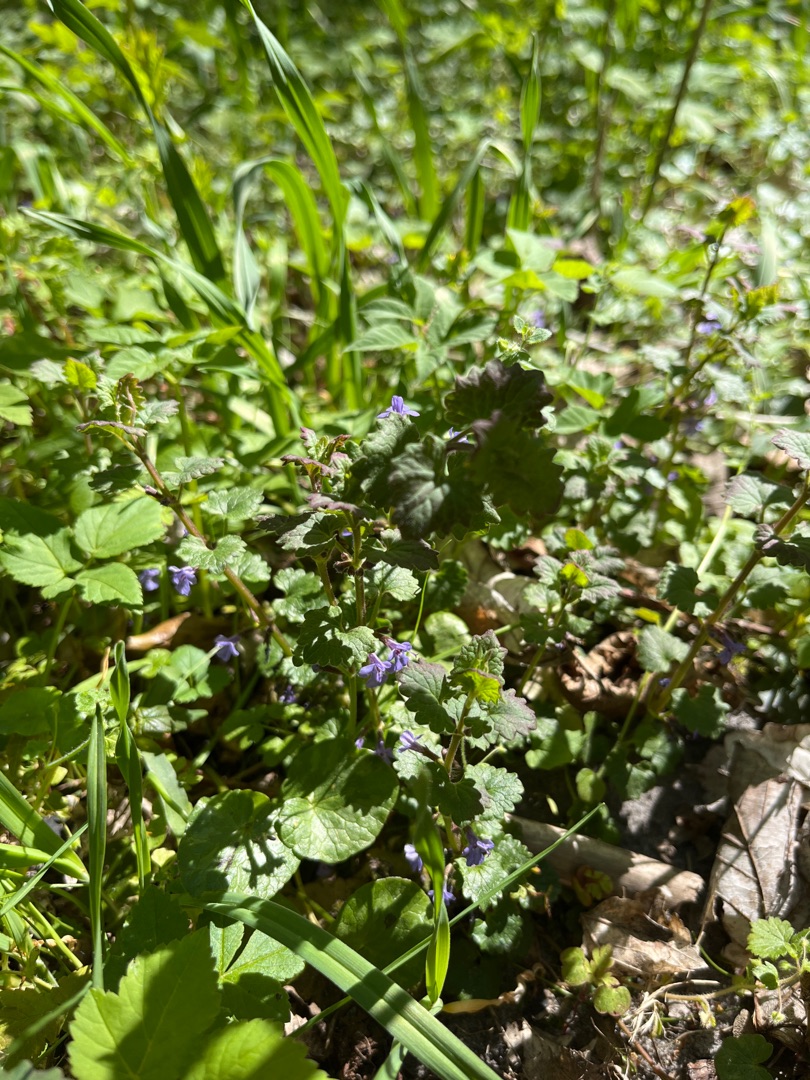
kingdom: Plantae
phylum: Tracheophyta
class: Magnoliopsida
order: Lamiales
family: Lamiaceae
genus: Glechoma
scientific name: Glechoma hederacea
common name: Korsknap
